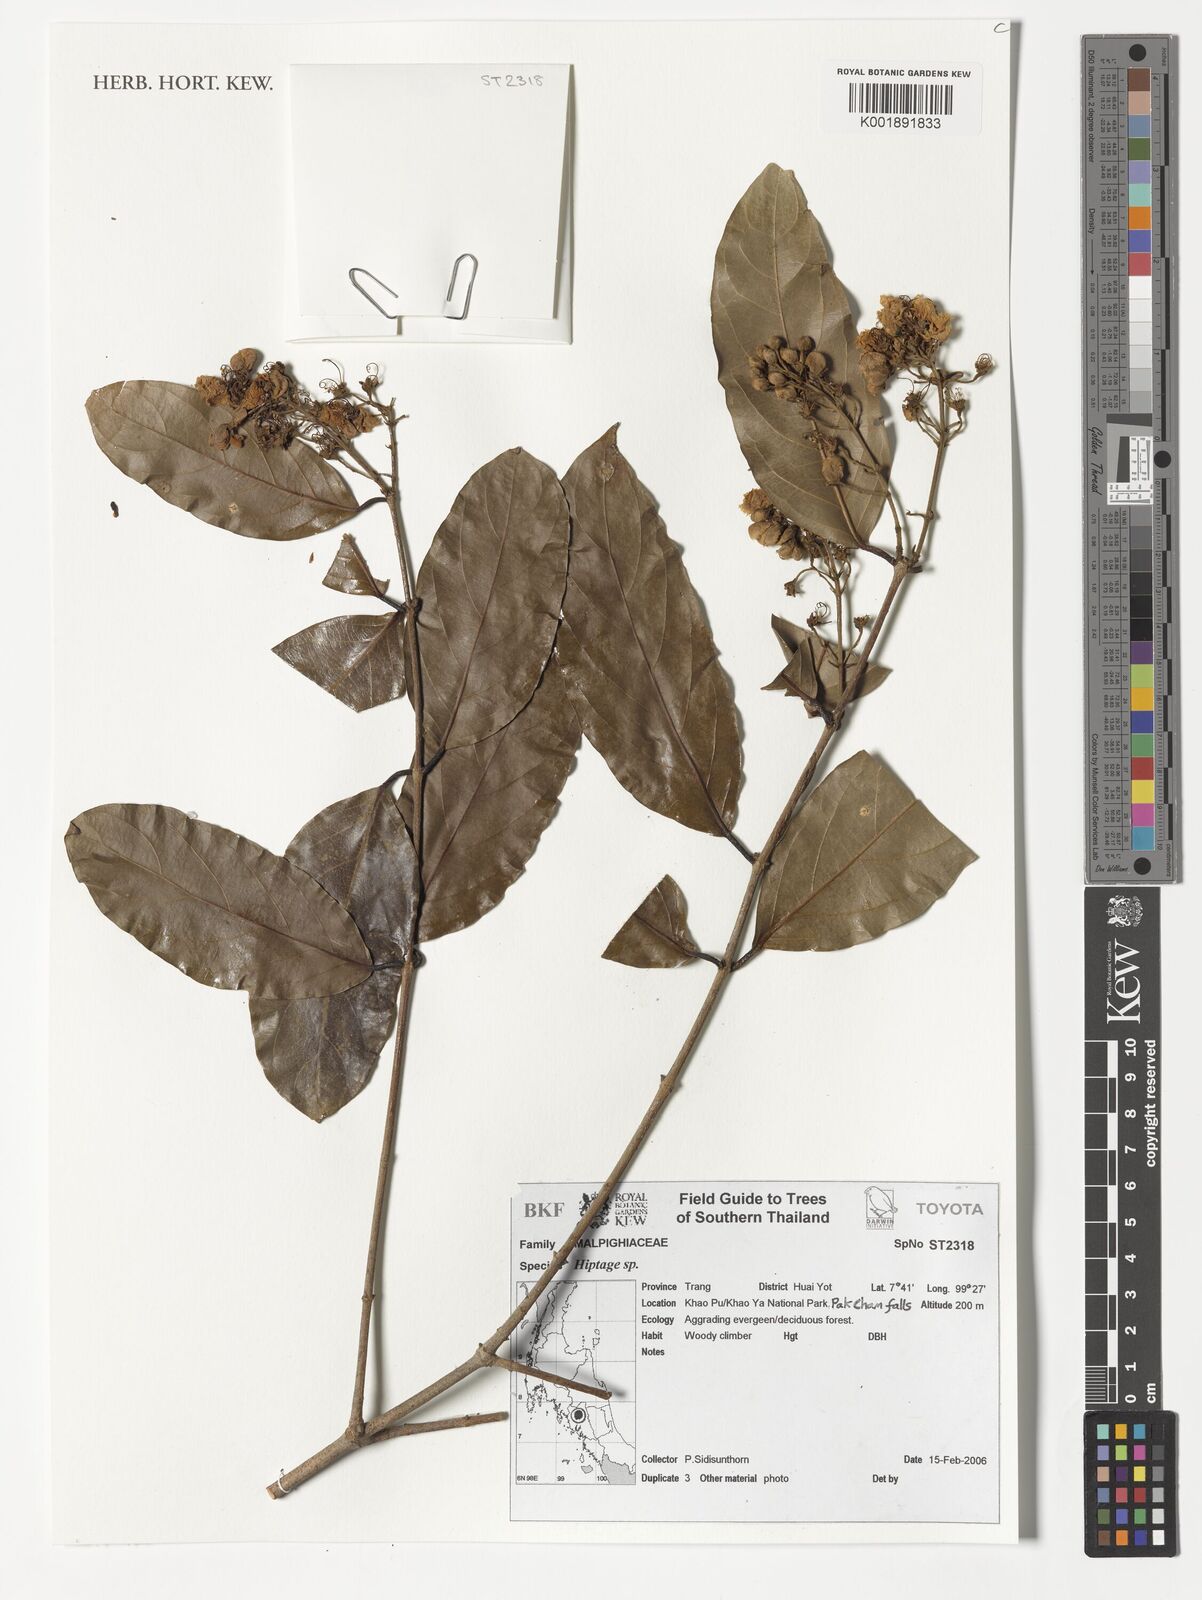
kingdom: Plantae
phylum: Tracheophyta
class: Magnoliopsida
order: Malpighiales
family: Malpighiaceae
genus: Hiptage
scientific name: Hiptage
